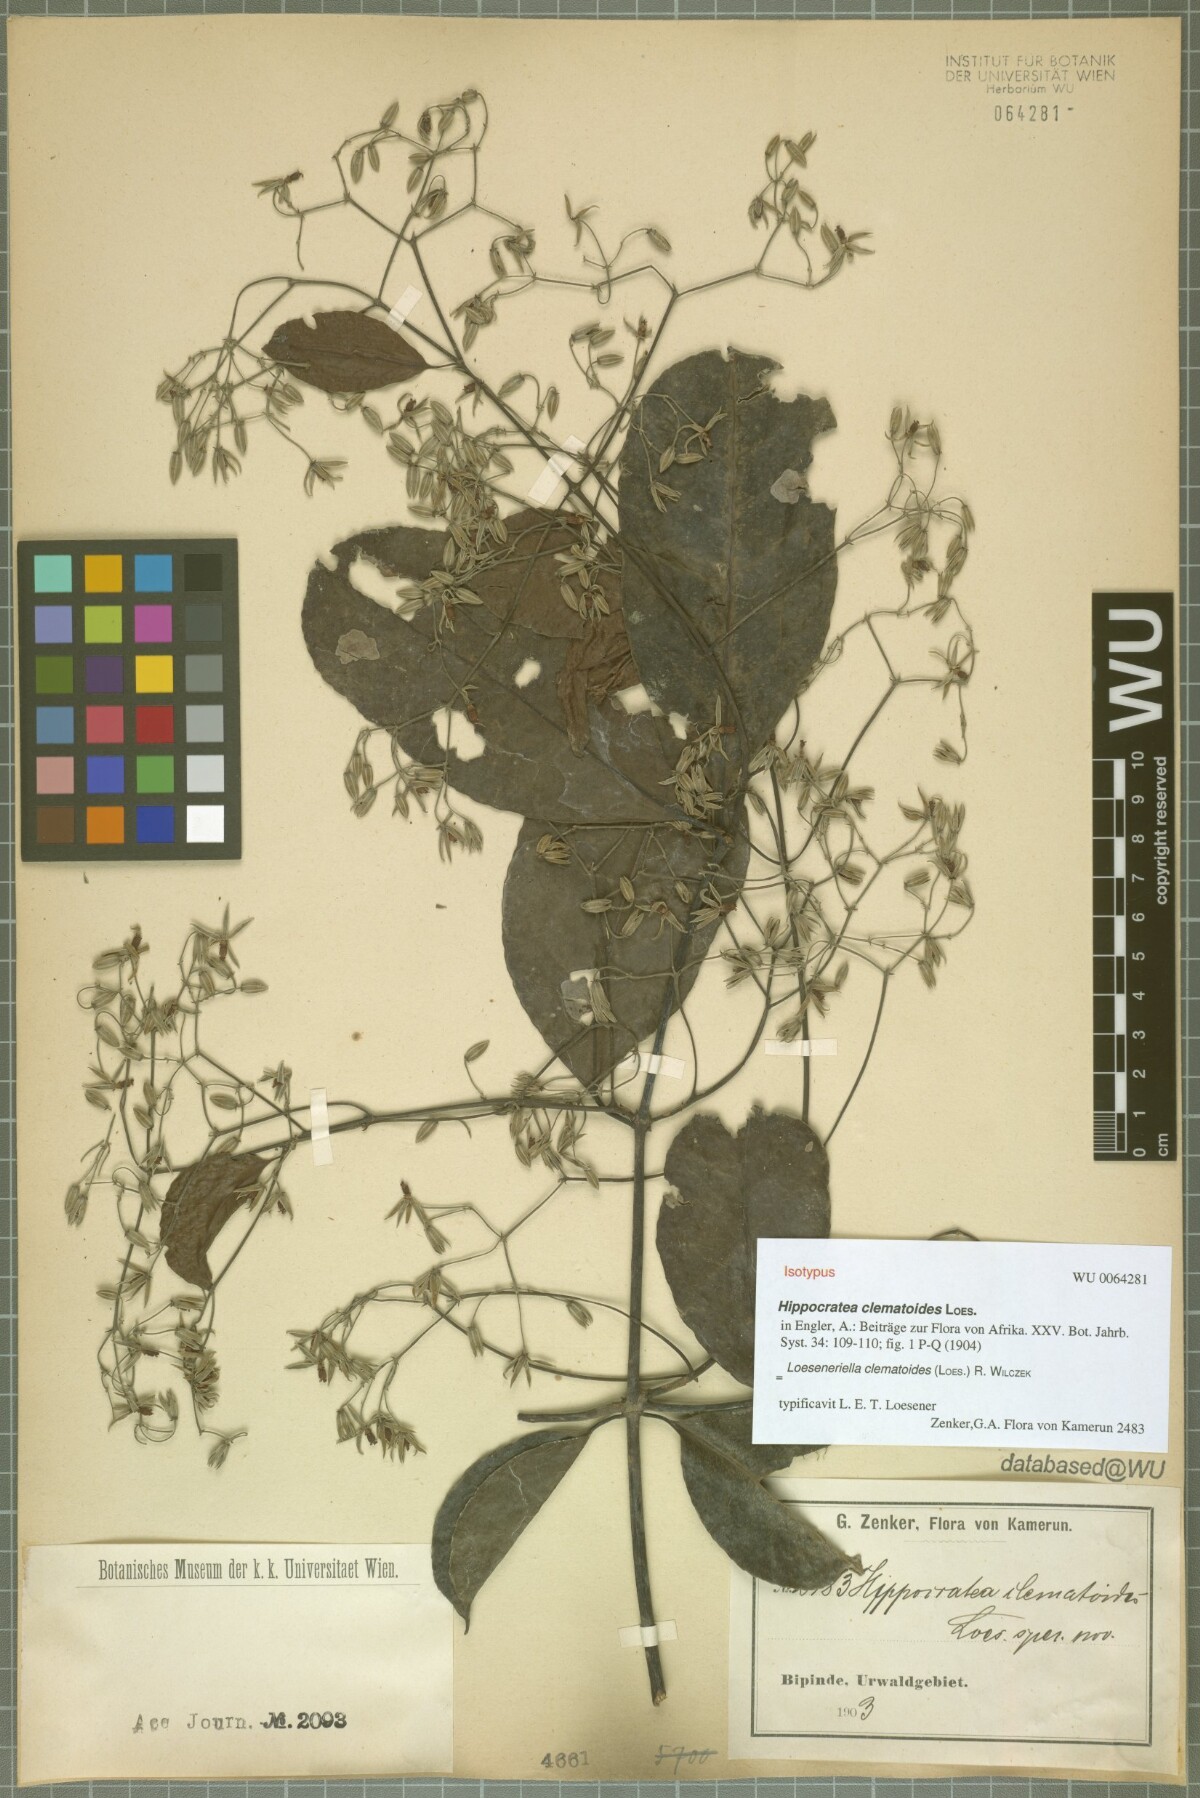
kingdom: Plantae
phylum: Tracheophyta
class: Magnoliopsida
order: Celastrales
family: Celastraceae
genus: Loeseneriella
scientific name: Loeseneriella clematoides
